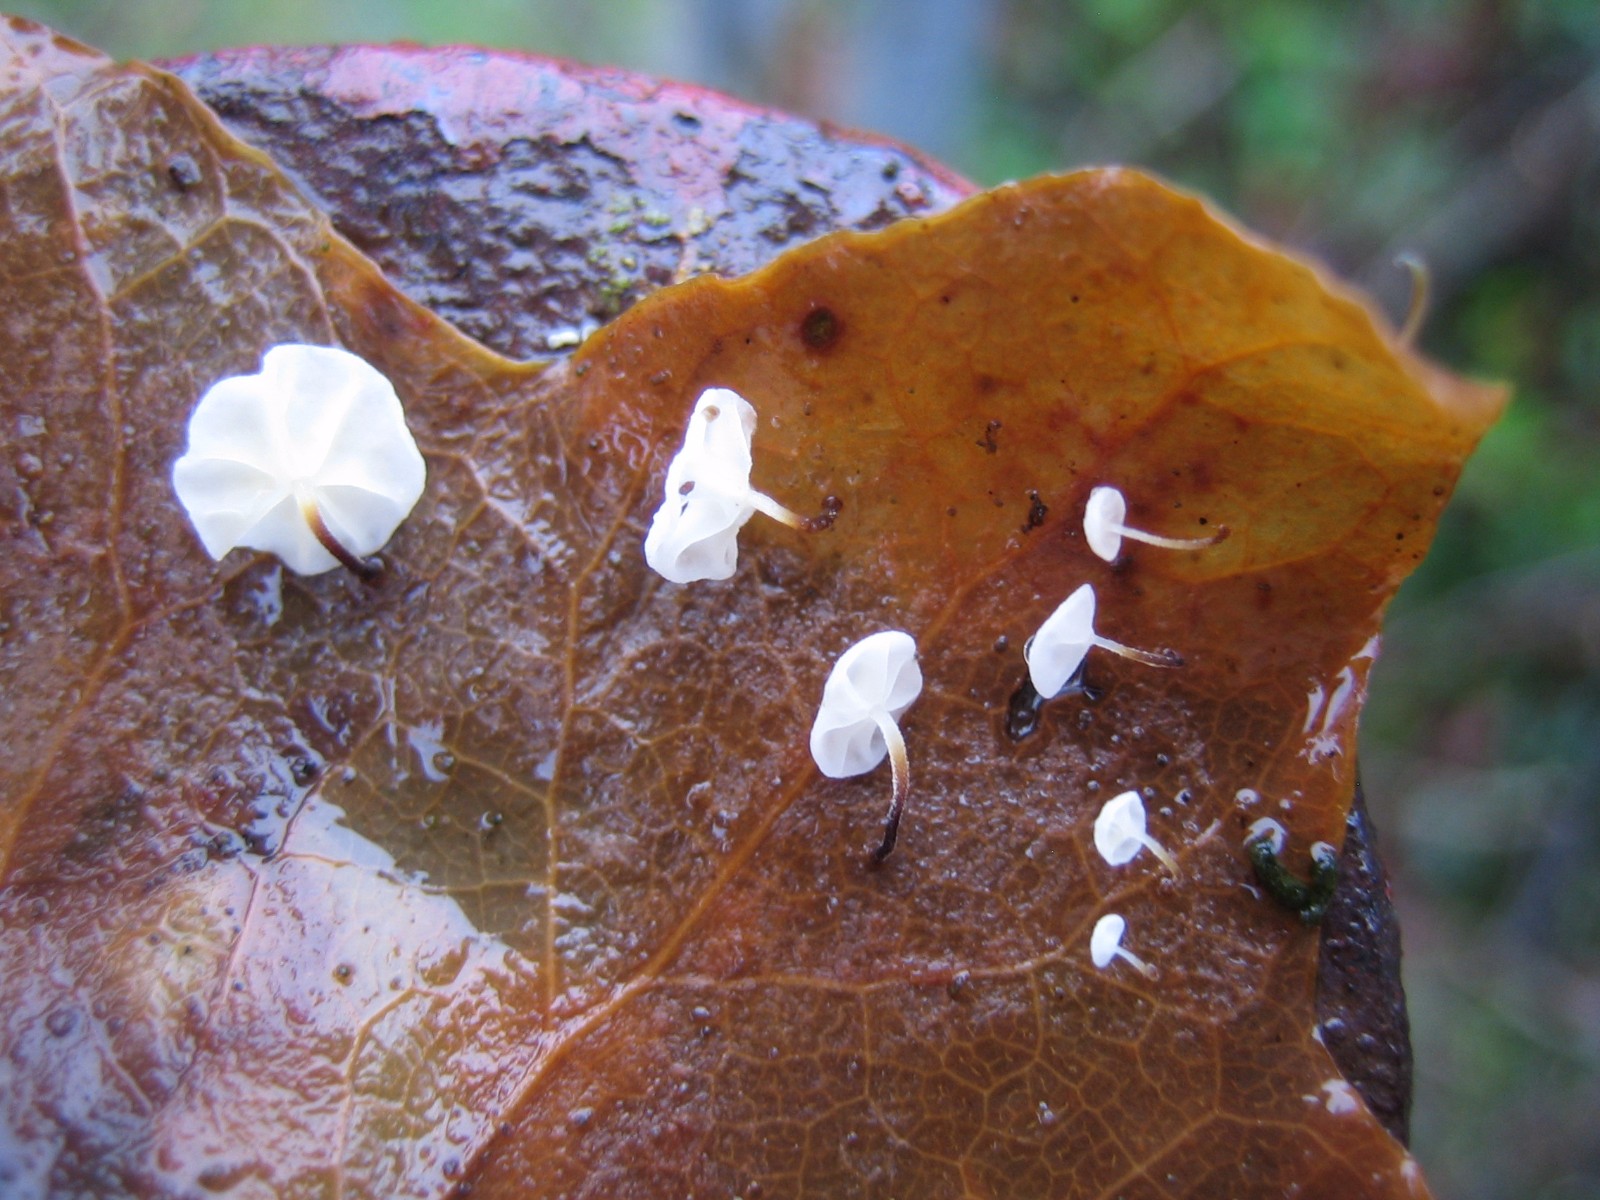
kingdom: Fungi
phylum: Basidiomycota
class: Agaricomycetes
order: Agaricales
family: Marasmiaceae
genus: Marasmius
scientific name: Marasmius epiphylloides
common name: vedbend-bruskhat
